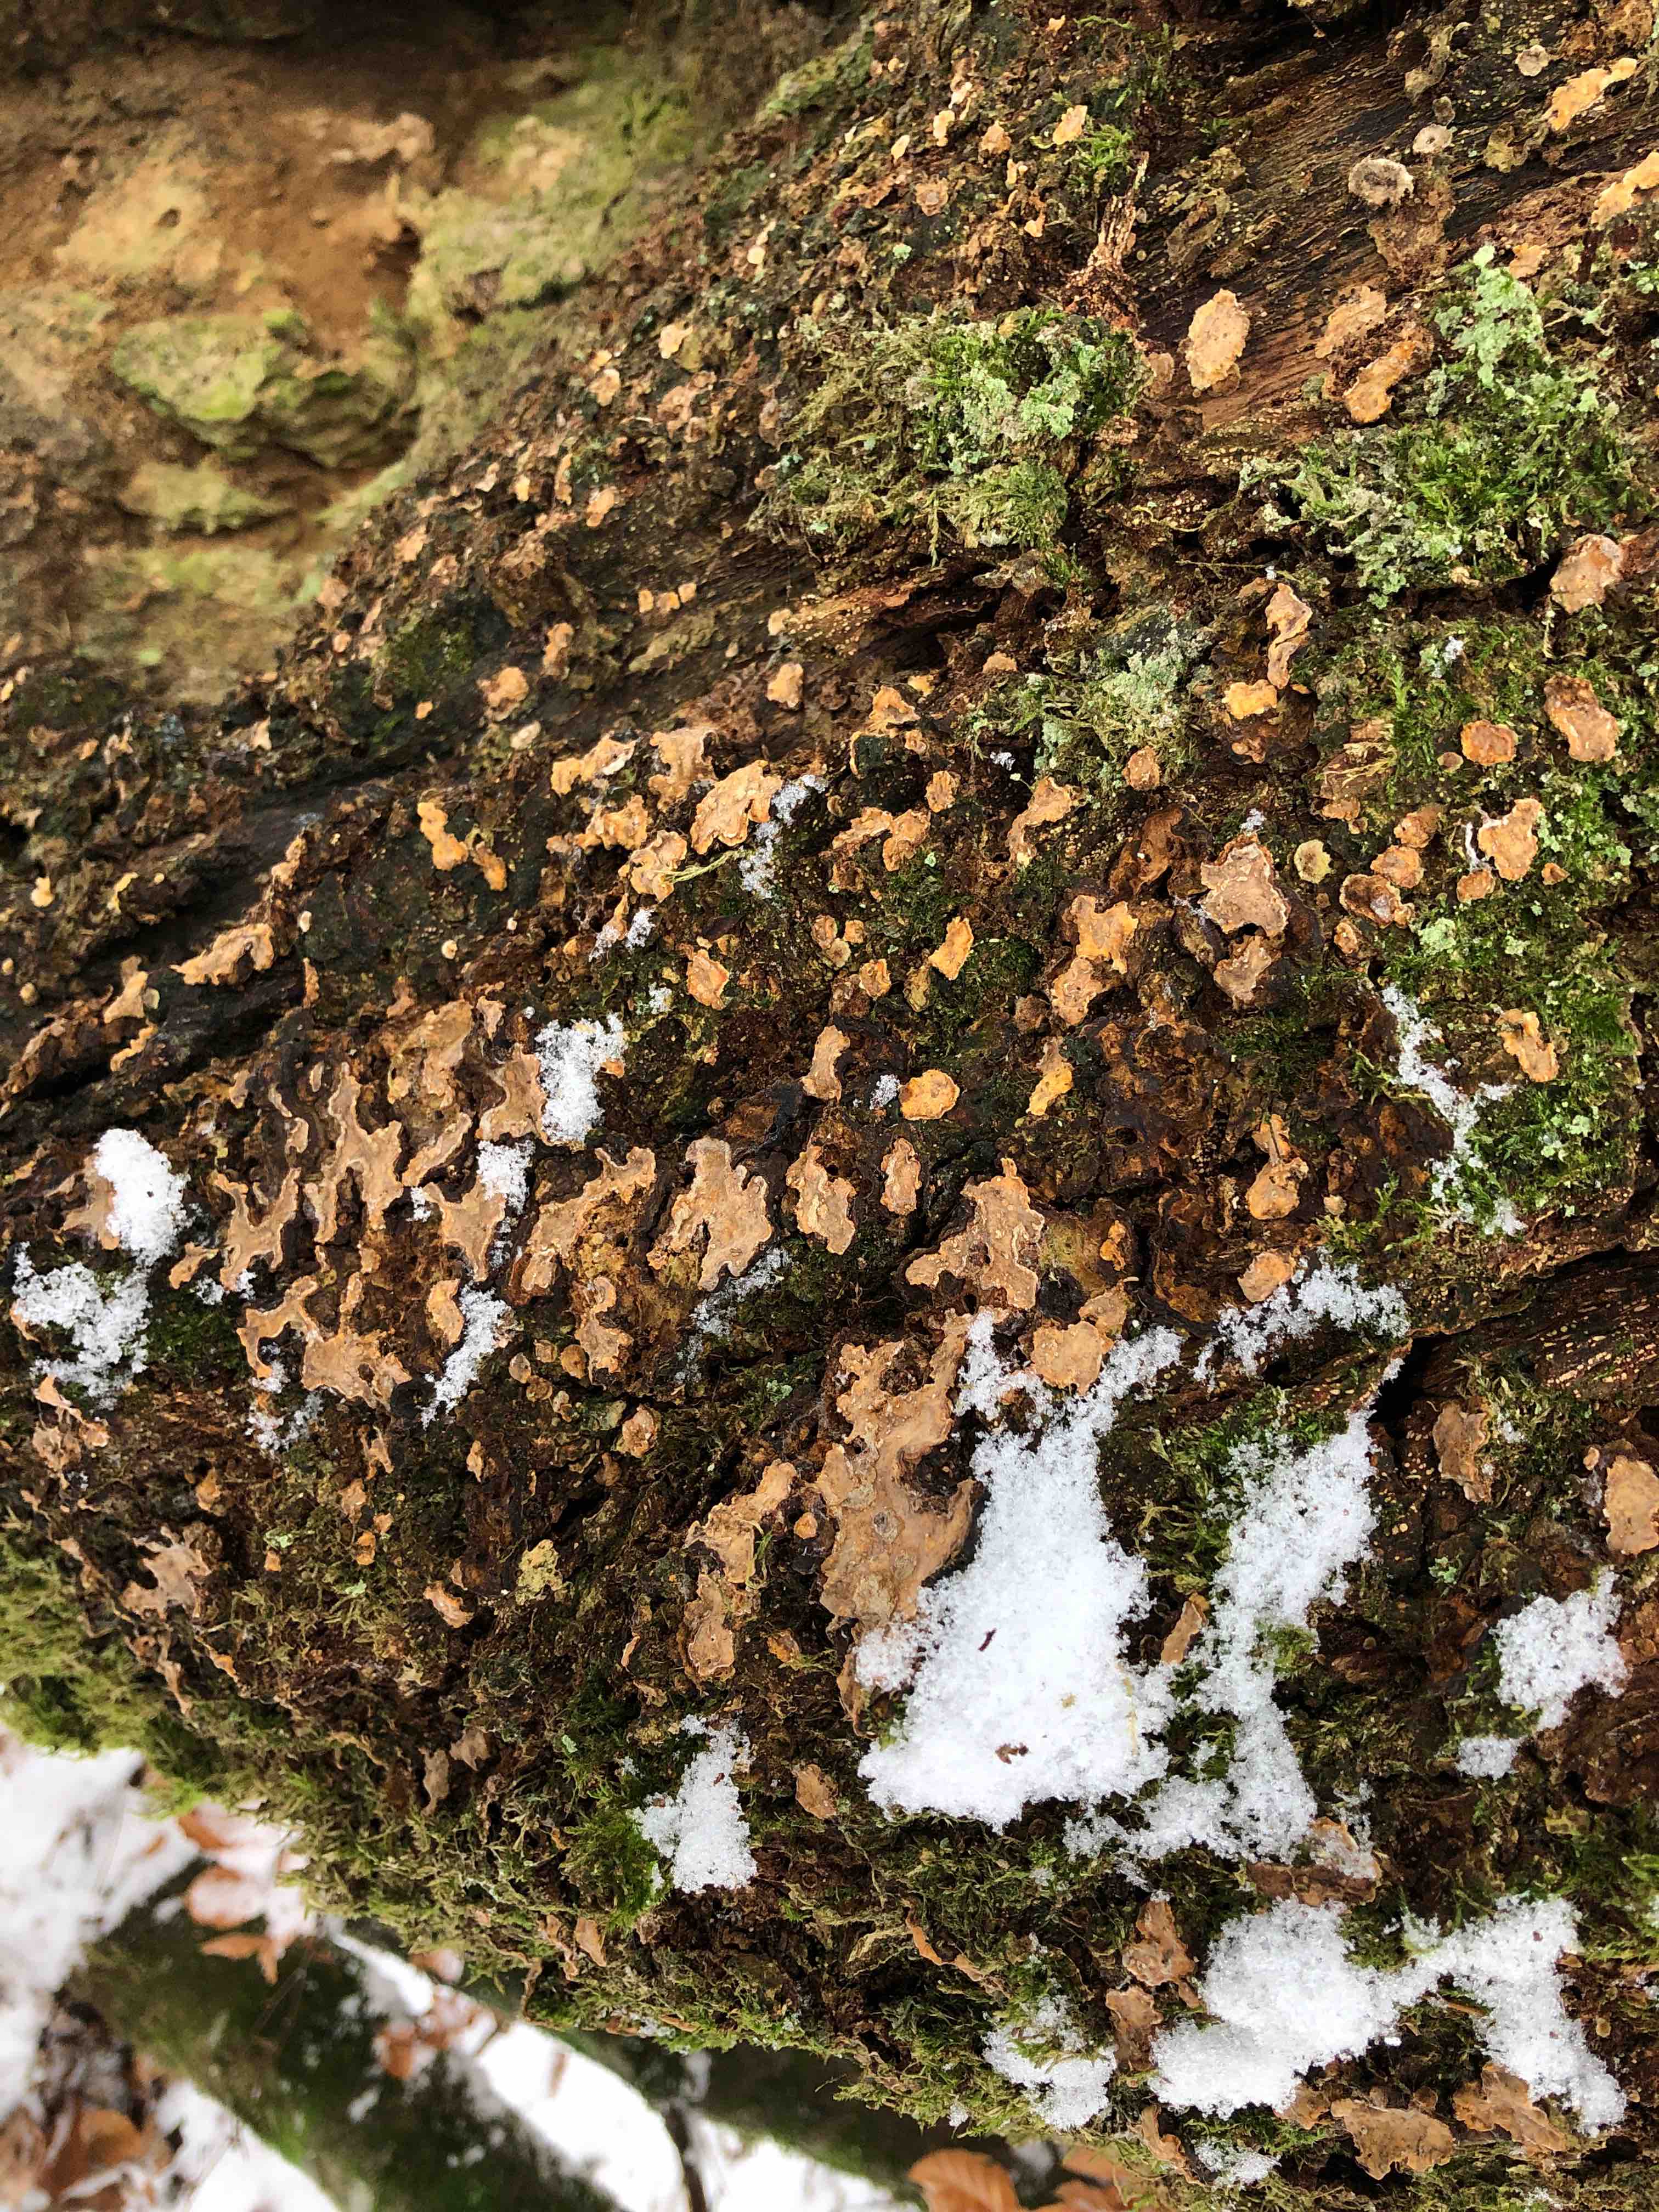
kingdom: Fungi
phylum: Basidiomycota
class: Agaricomycetes
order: Russulales
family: Stereaceae
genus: Stereum
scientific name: Stereum rugosum
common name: rynket lædersvamp
